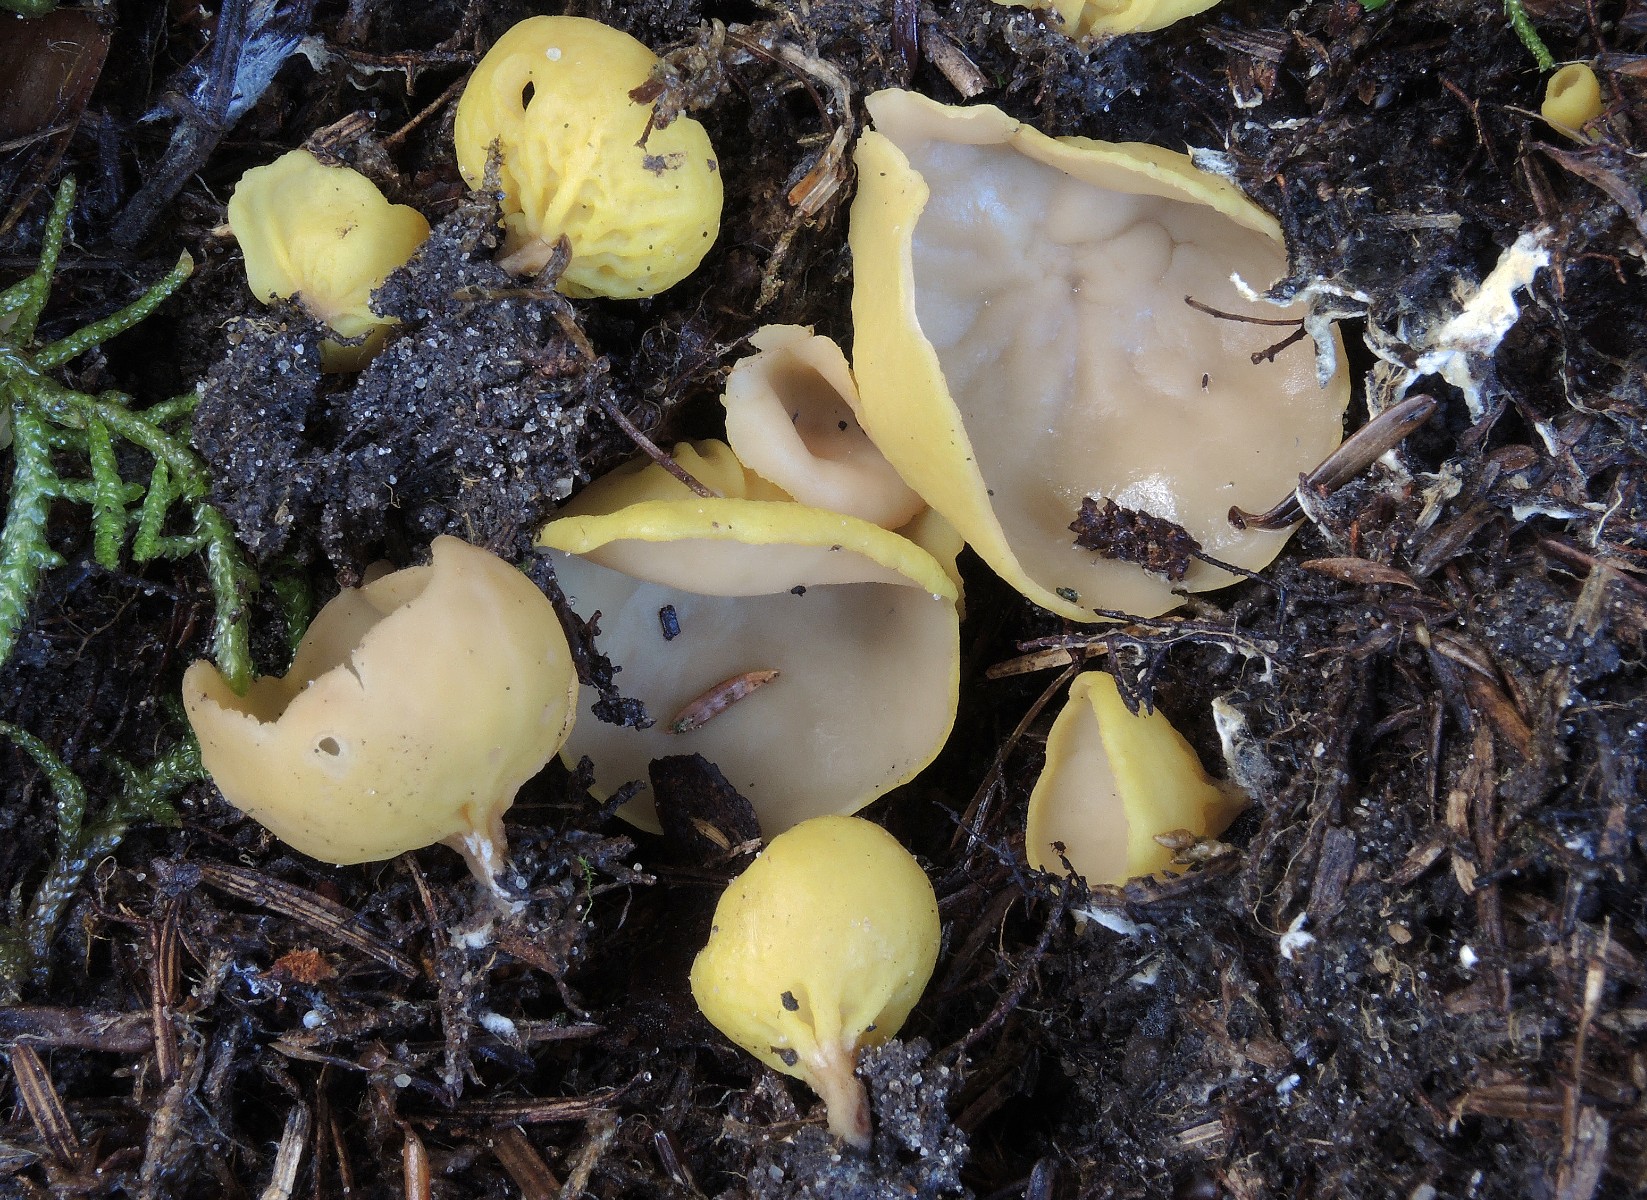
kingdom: Fungi
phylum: Ascomycota
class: Pezizomycetes
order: Pezizales
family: Otideaceae
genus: Otidea
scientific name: Otidea phlebophora
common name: året ørebæger
